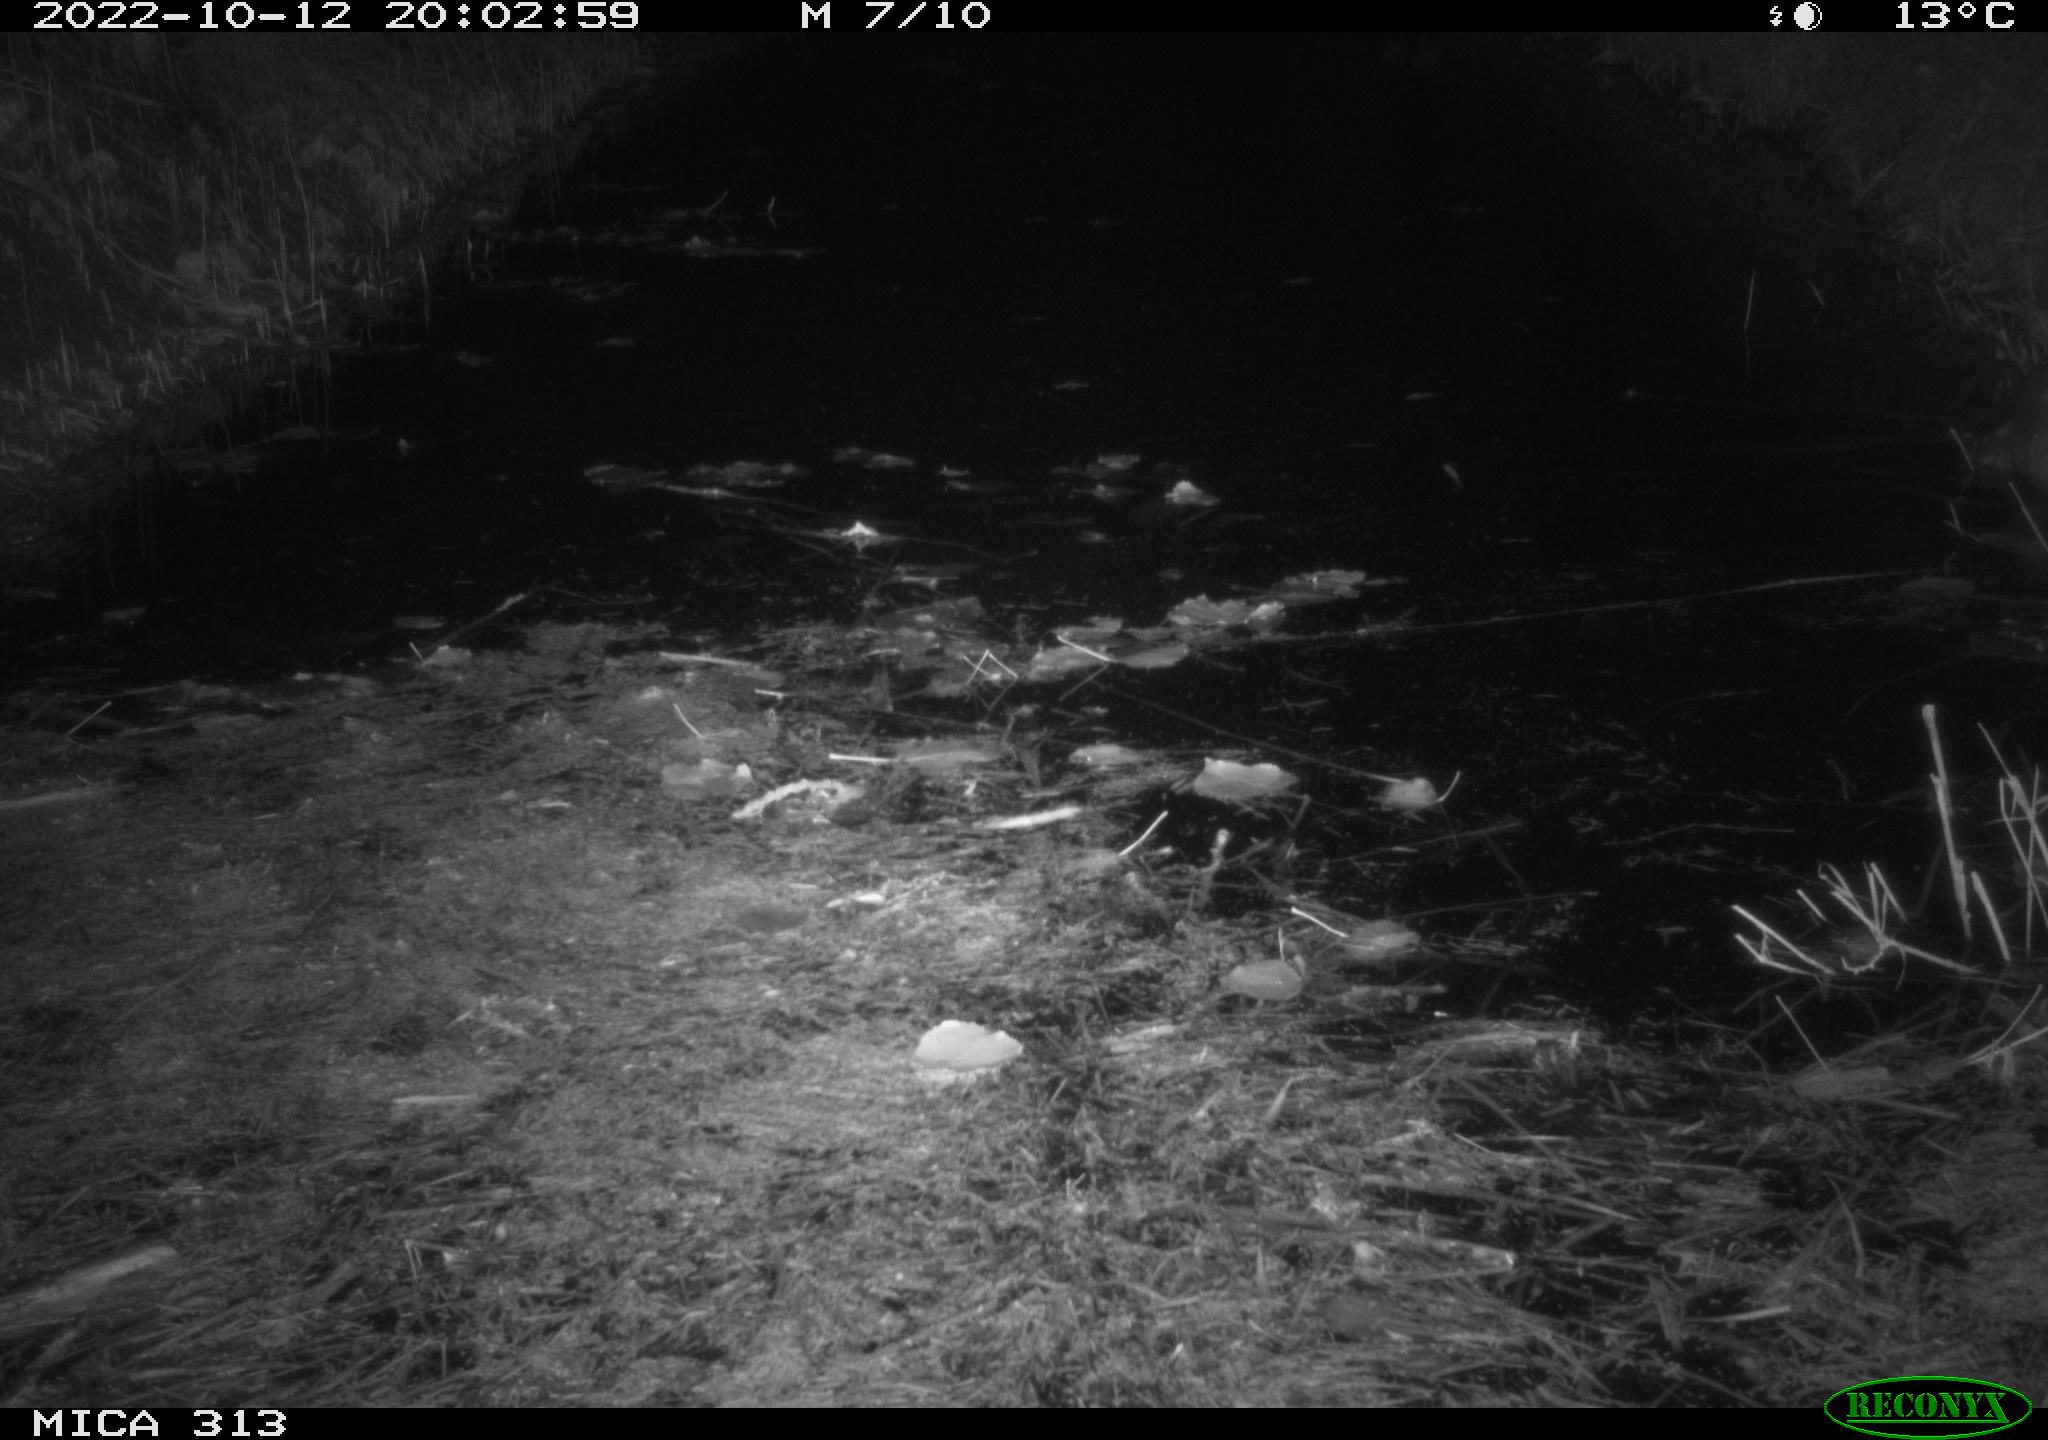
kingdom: Animalia
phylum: Chordata
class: Mammalia
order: Rodentia
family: Muridae
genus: Rattus
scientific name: Rattus norvegicus
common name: Brown rat
